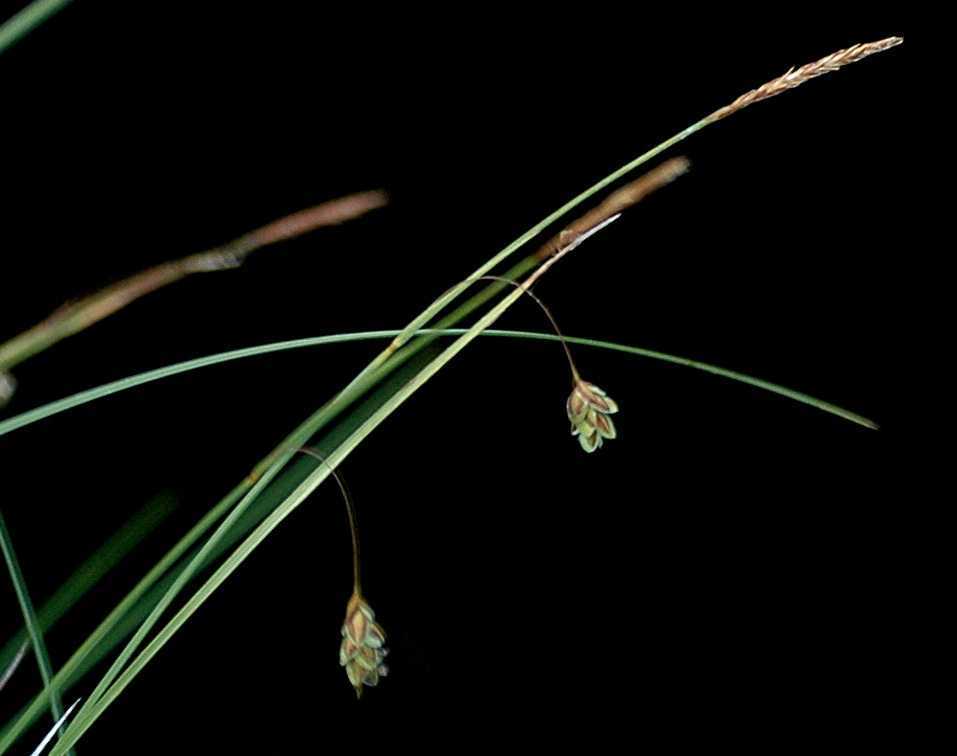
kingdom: Plantae
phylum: Tracheophyta
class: Liliopsida
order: Poales
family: Cyperaceae
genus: Carex
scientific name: Carex limosa
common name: Dynd-star
